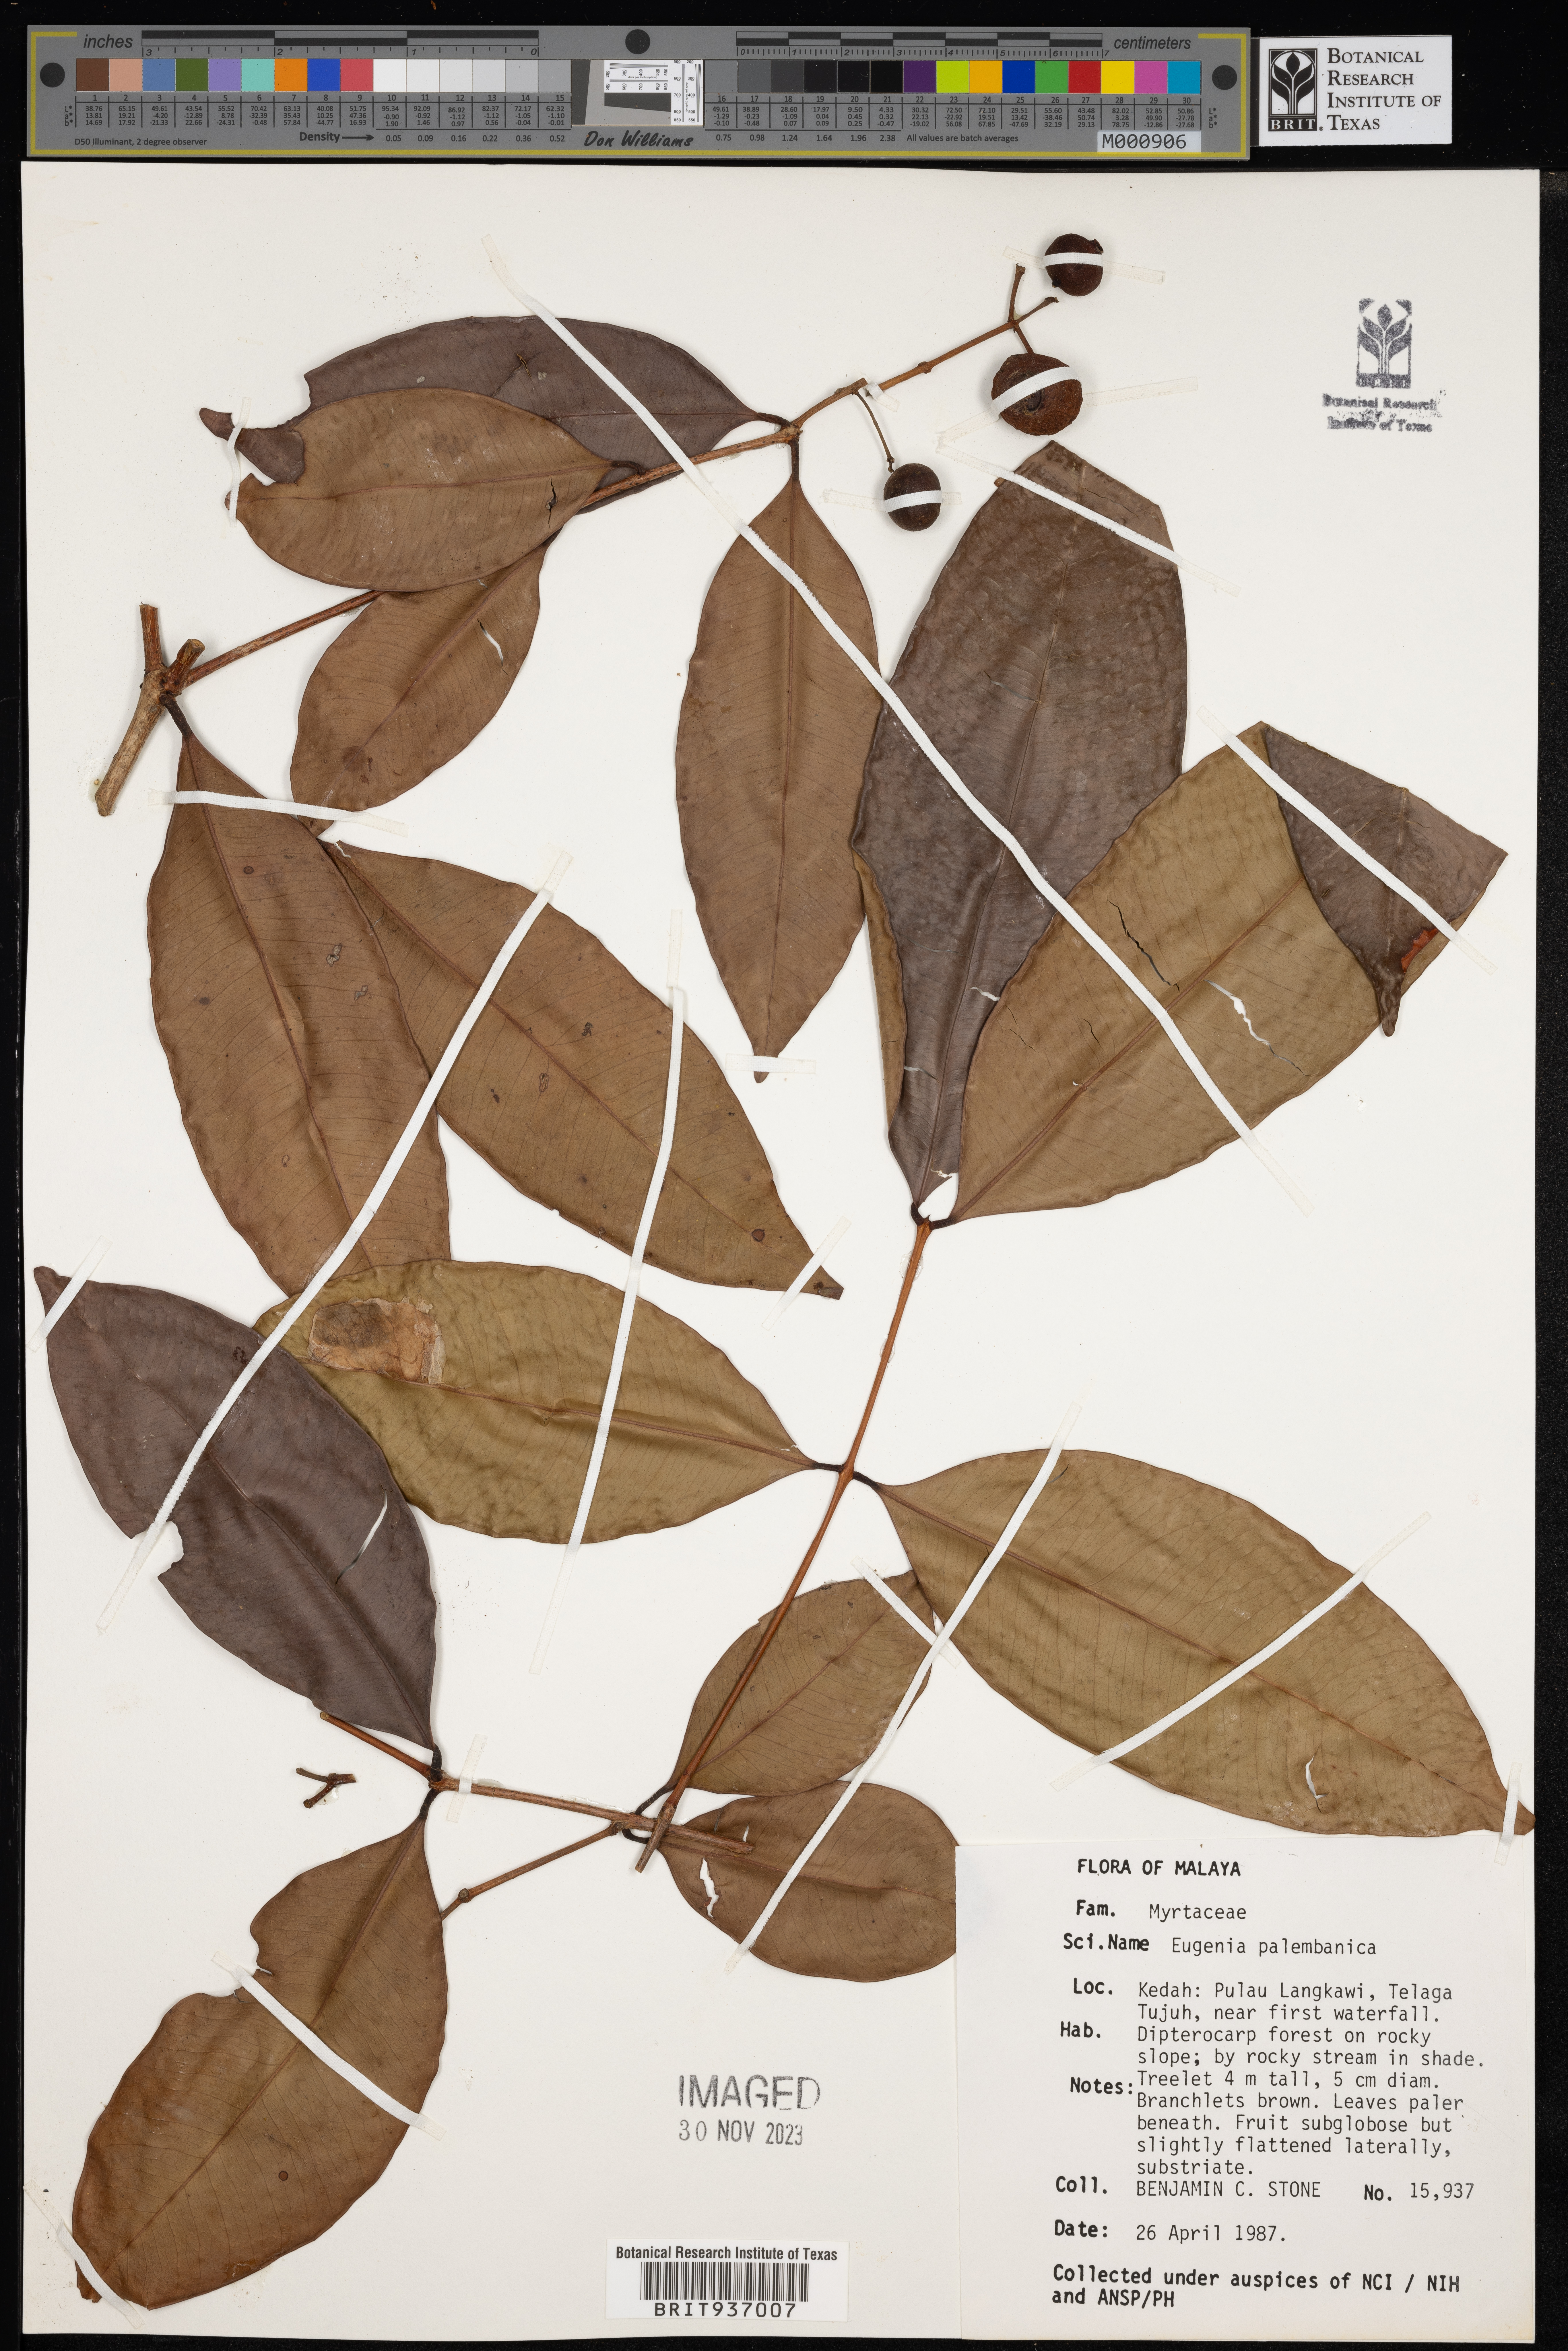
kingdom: Plantae
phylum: Tracheophyta
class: Magnoliopsida
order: Myrtales
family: Myrtaceae
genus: Eugenia
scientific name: Eugenia
